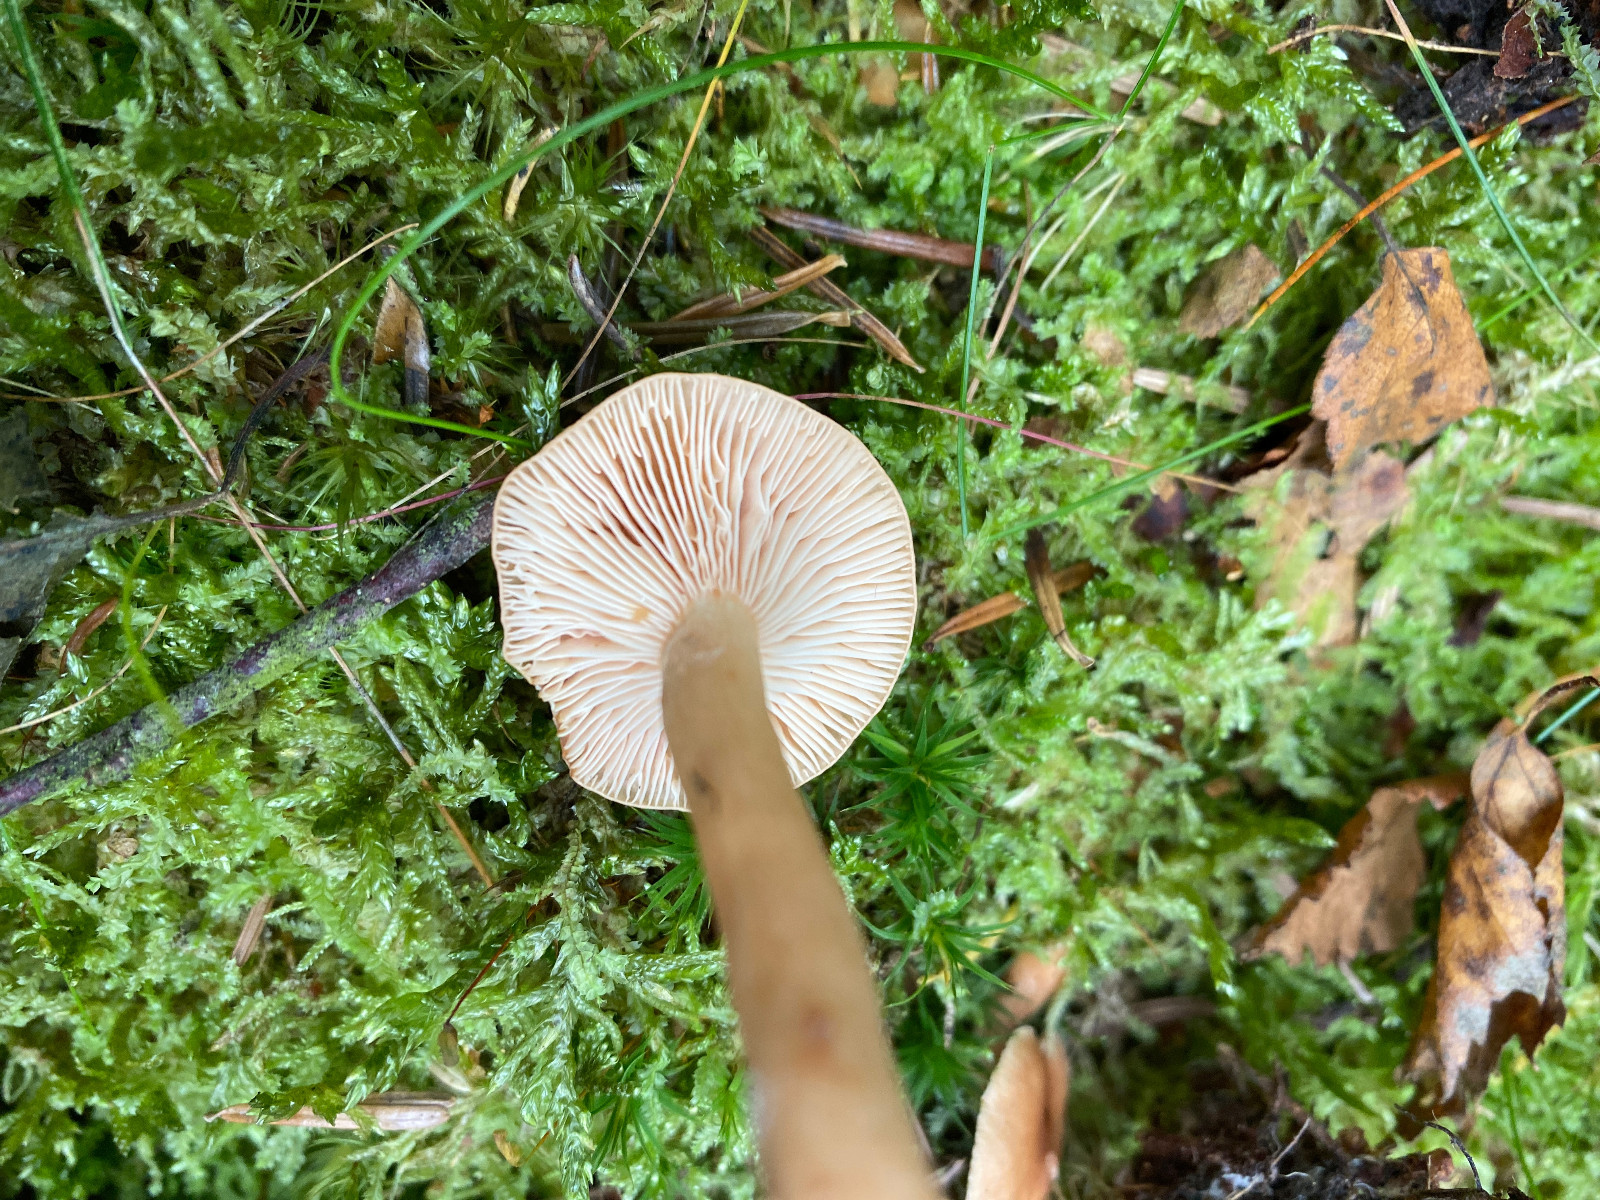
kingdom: Fungi
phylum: Basidiomycota
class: Agaricomycetes
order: Russulales
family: Russulaceae
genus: Lactarius
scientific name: Lactarius tabidus
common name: rynket mælkehat
